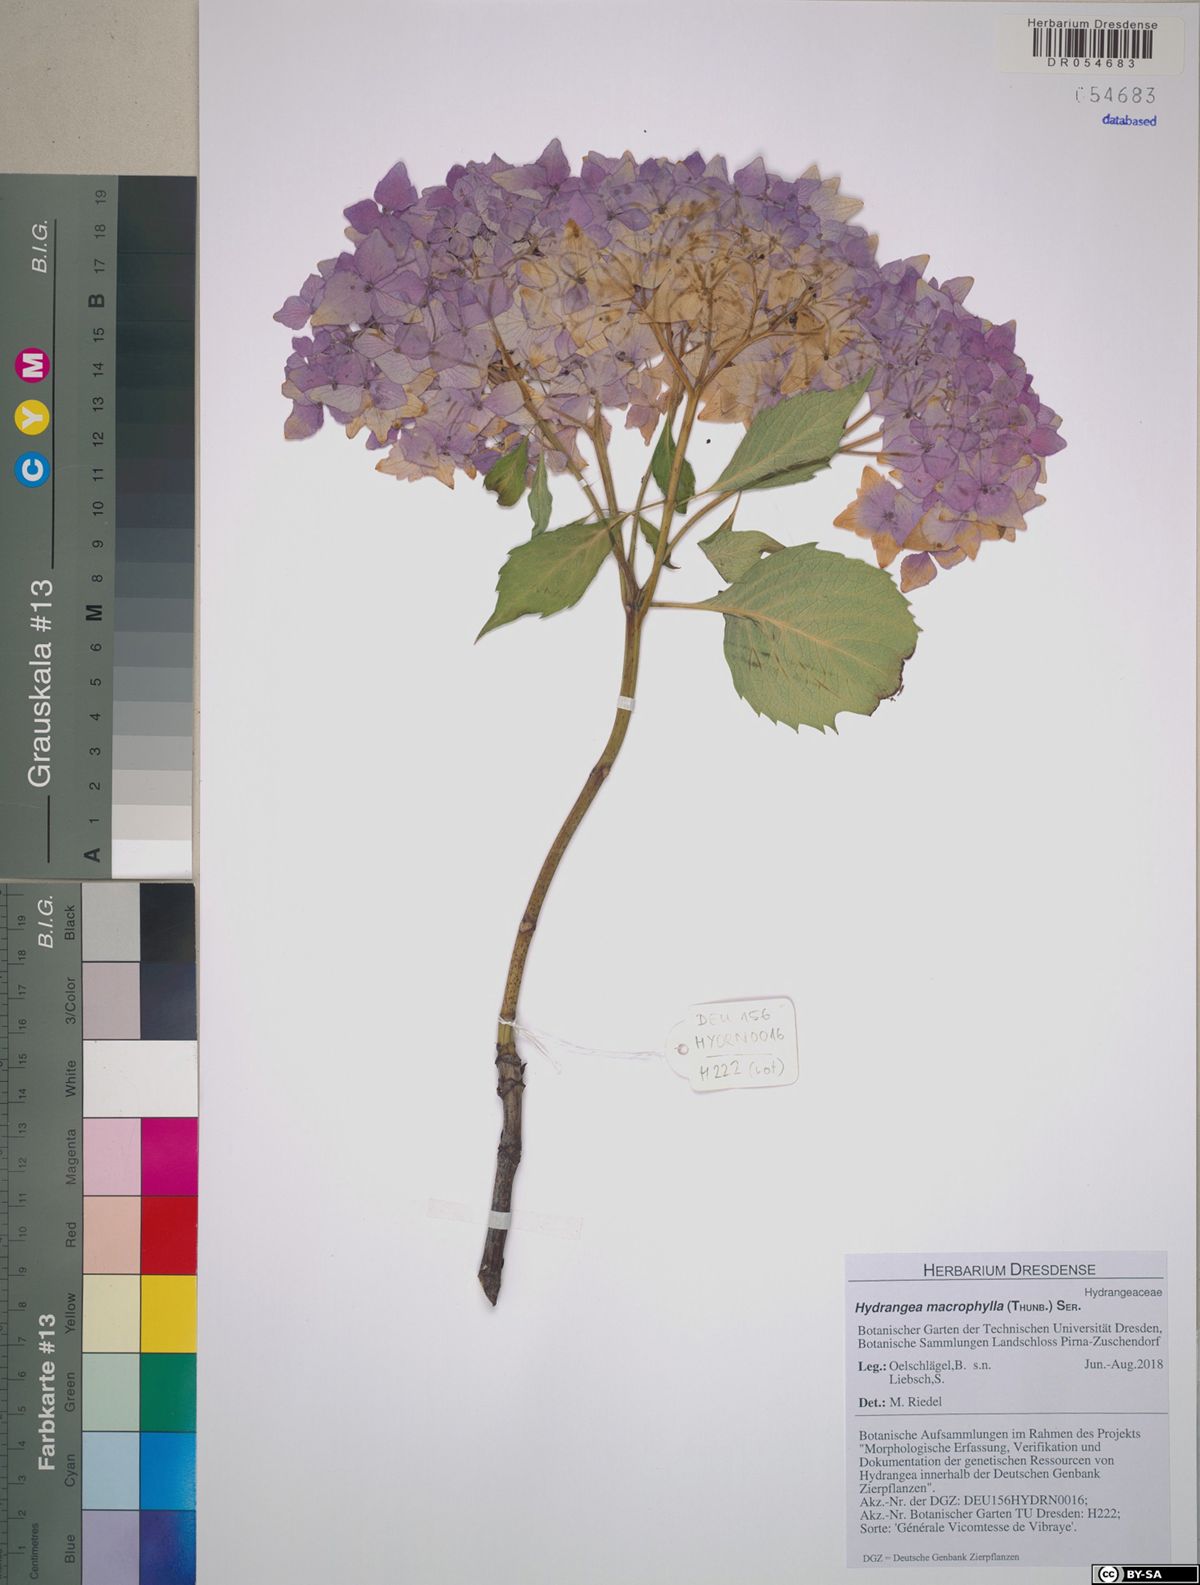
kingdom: Plantae
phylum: Tracheophyta
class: Magnoliopsida
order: Cornales
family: Hydrangeaceae
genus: Hydrangea
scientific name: Hydrangea macrophylla
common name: Hydrangea
